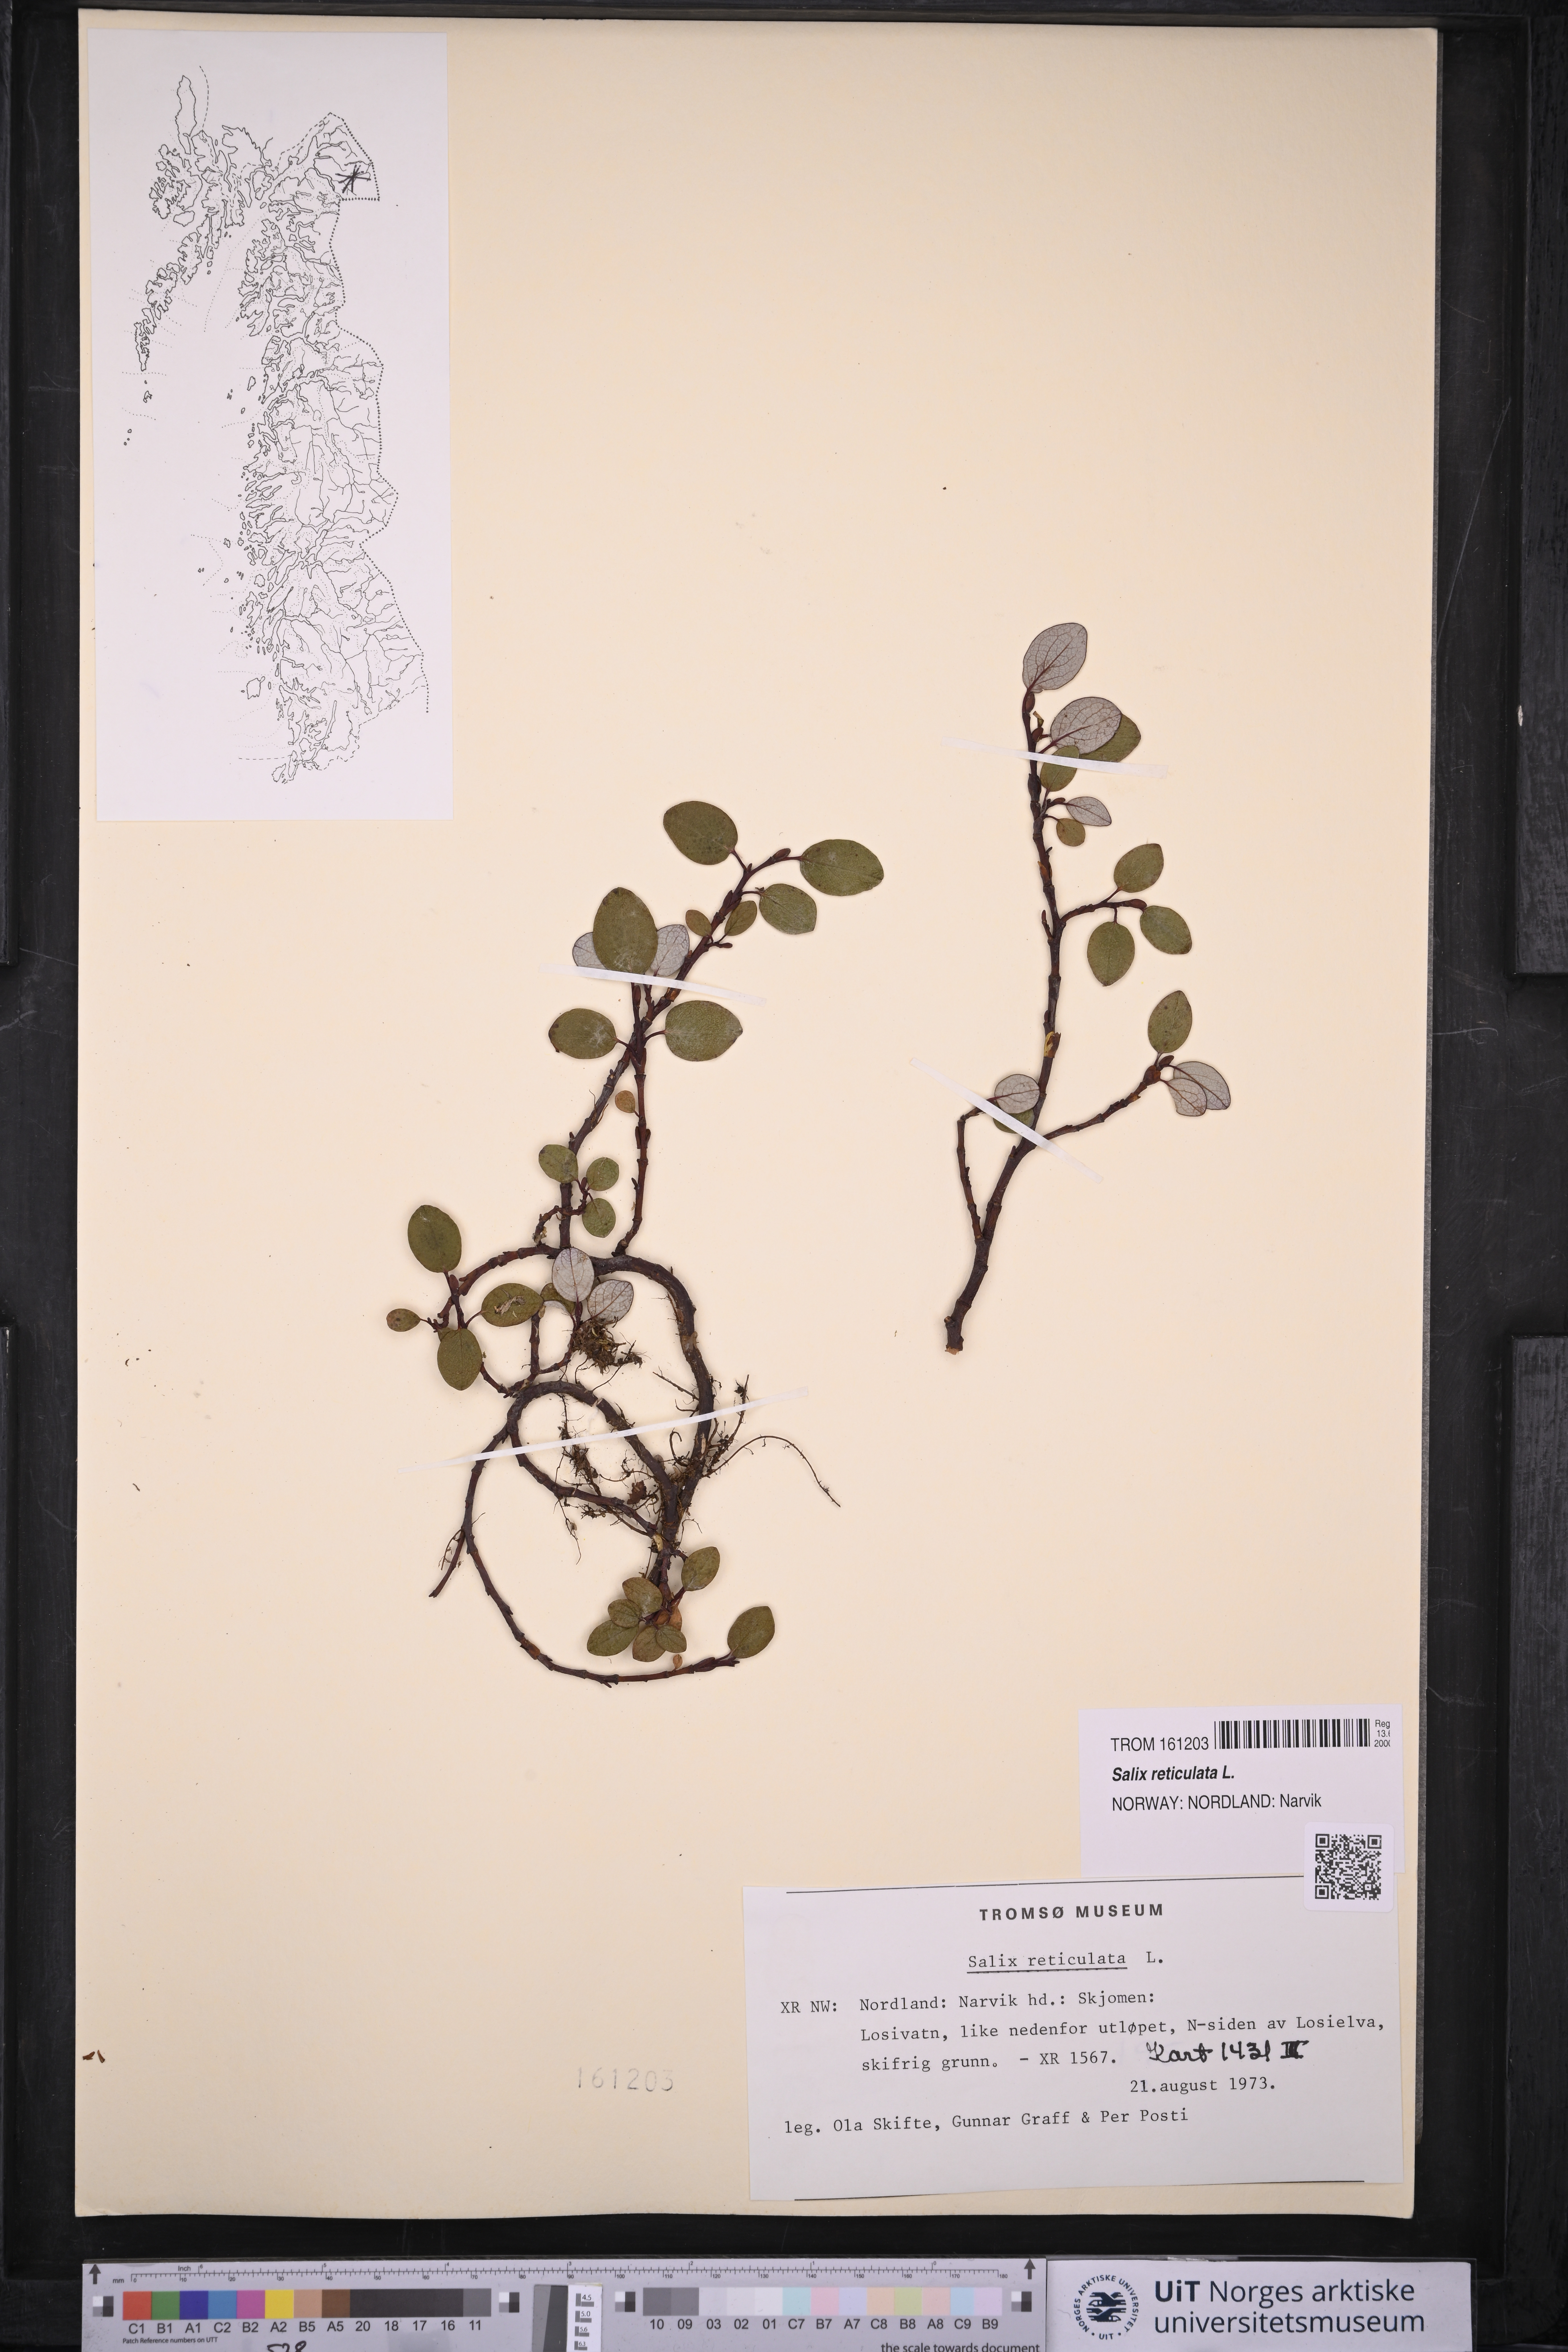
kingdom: Plantae
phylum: Tracheophyta
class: Magnoliopsida
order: Malpighiales
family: Salicaceae
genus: Salix
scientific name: Salix reticulata
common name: Net-leaved willow
